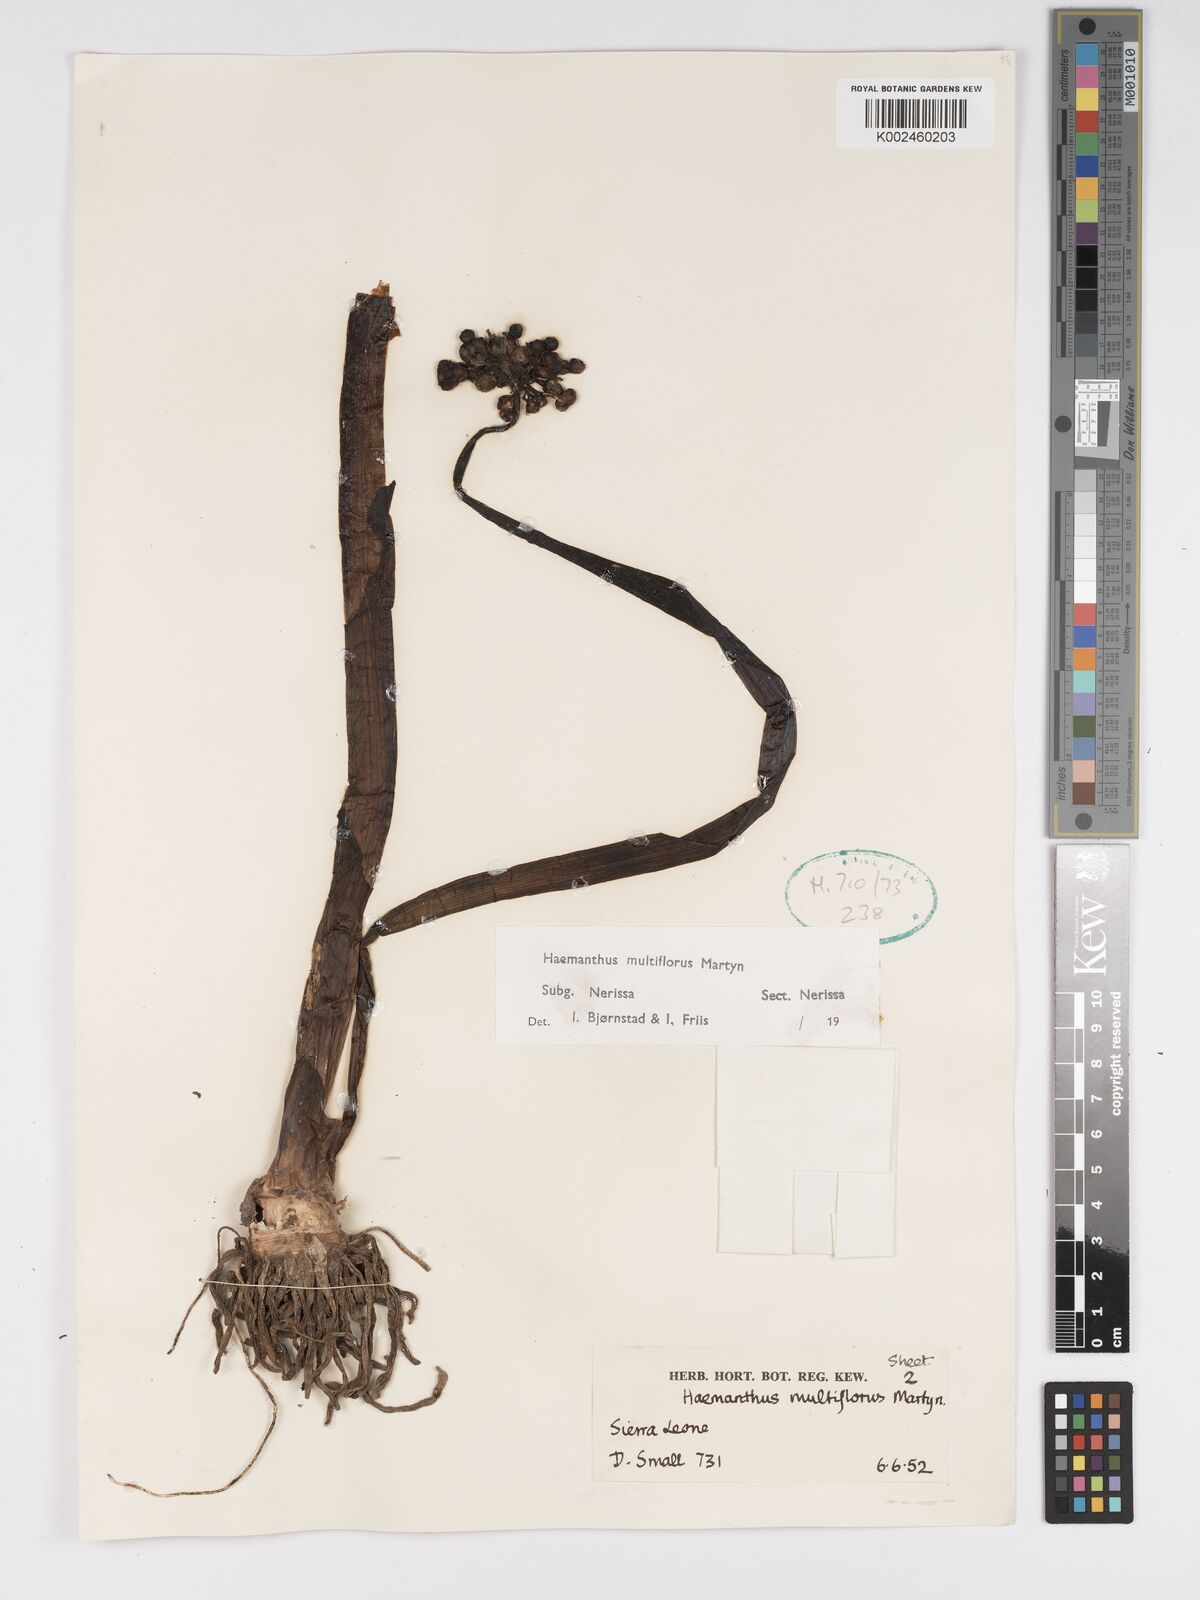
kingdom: Plantae
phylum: Tracheophyta
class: Liliopsida
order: Asparagales
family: Amaryllidaceae
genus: Scadoxus
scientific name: Scadoxus multiflorus
